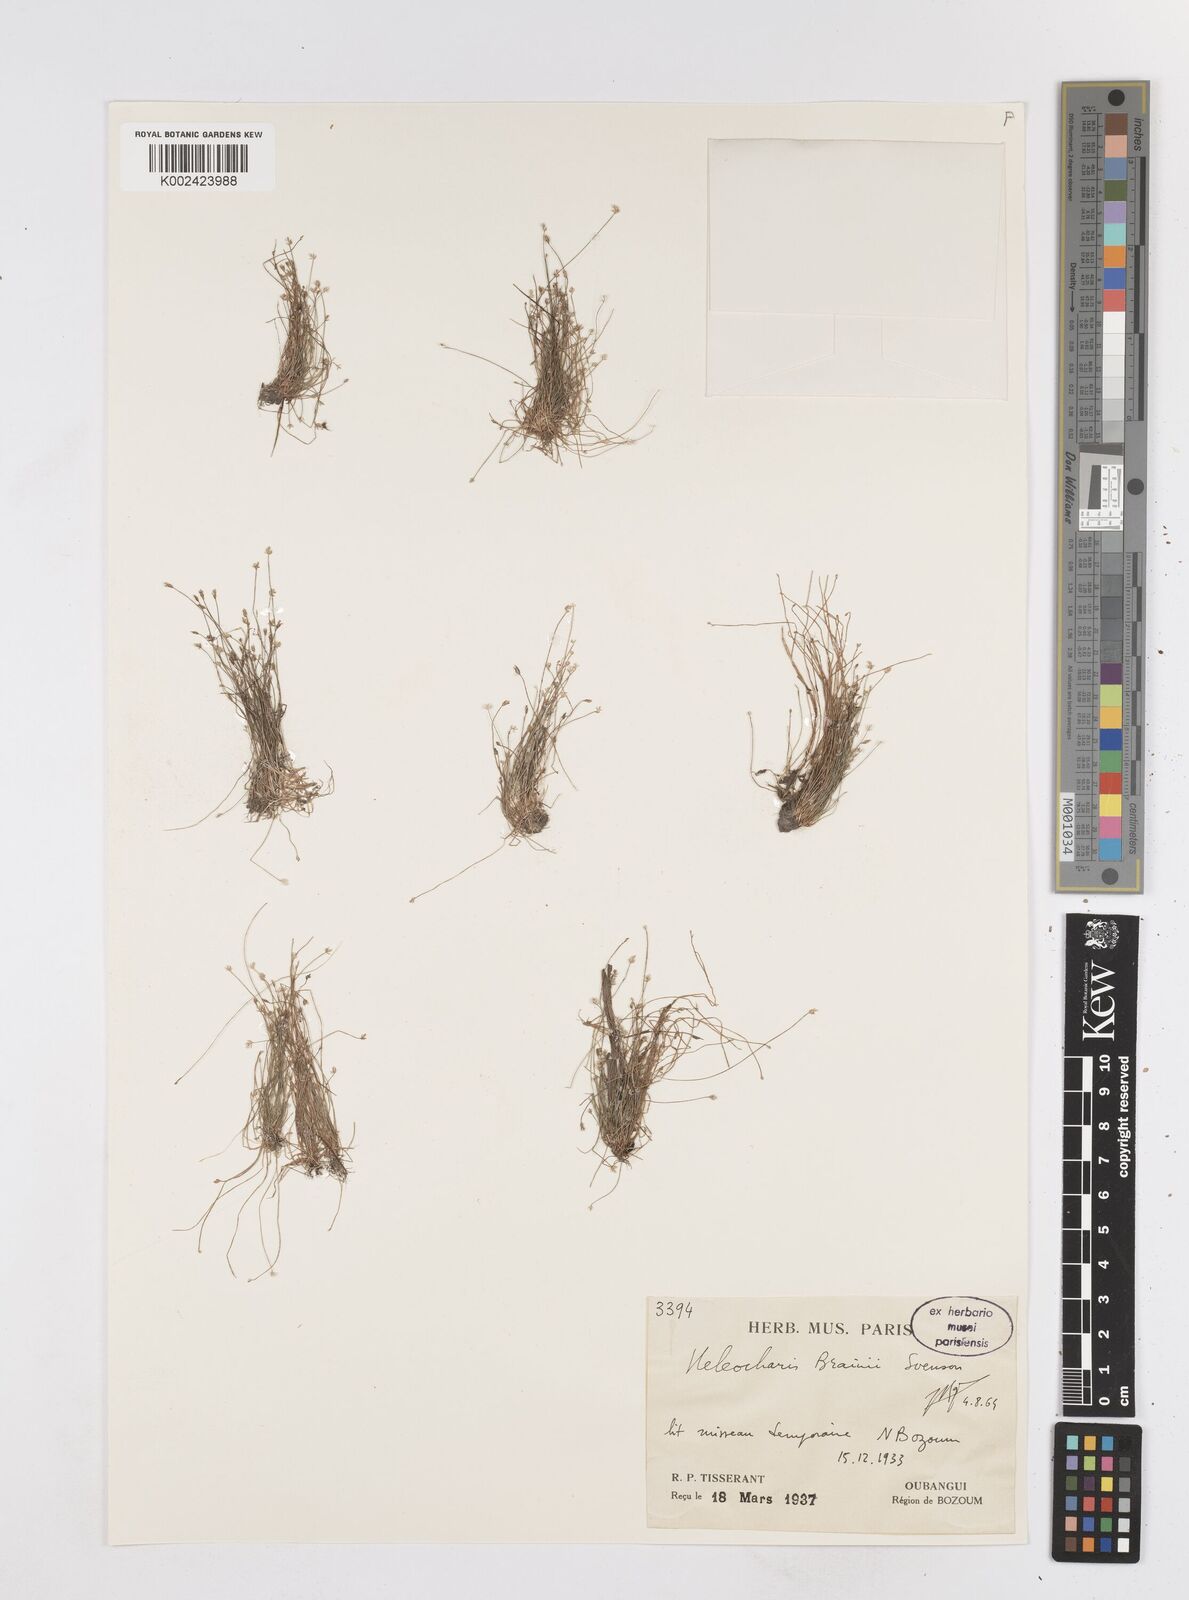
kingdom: Plantae
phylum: Tracheophyta
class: Liliopsida
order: Poales
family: Cyperaceae
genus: Eleocharis
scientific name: Eleocharis brainii
